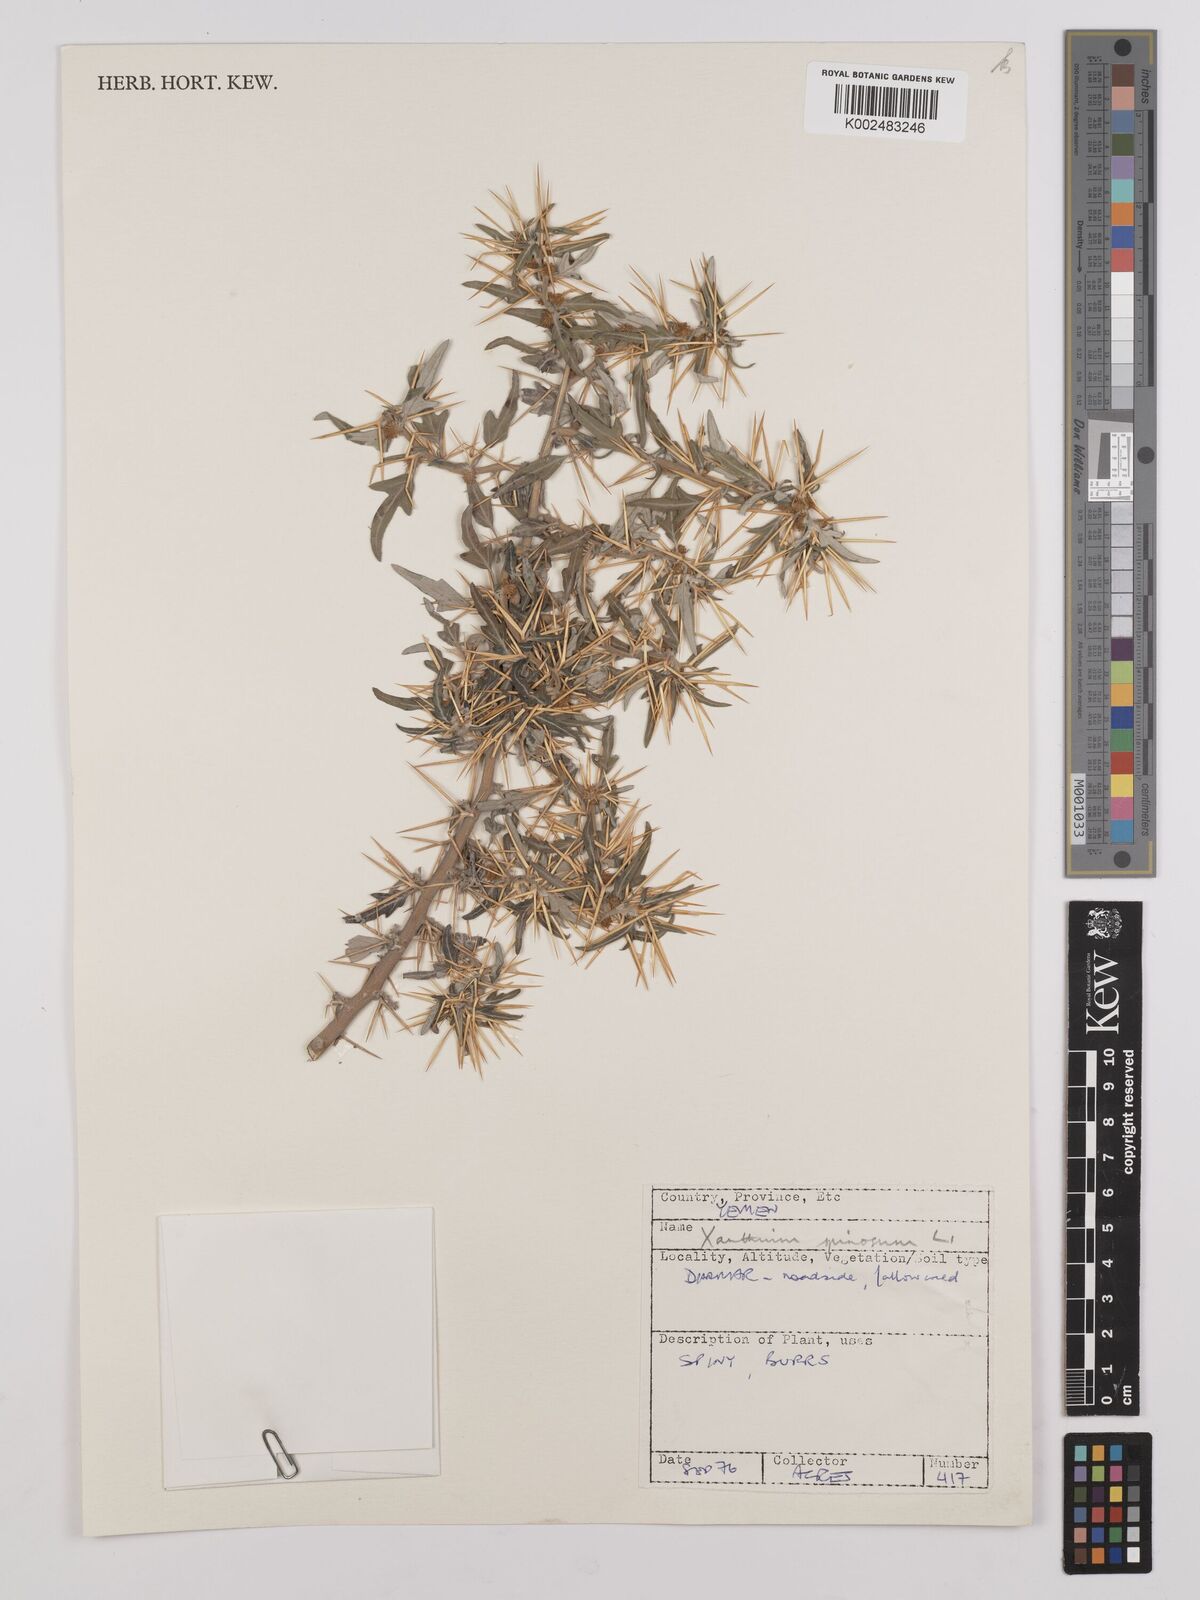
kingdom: Plantae
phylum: Tracheophyta
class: Magnoliopsida
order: Asterales
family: Asteraceae
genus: Xanthium
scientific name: Xanthium spinosum
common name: Spiny cocklebur
